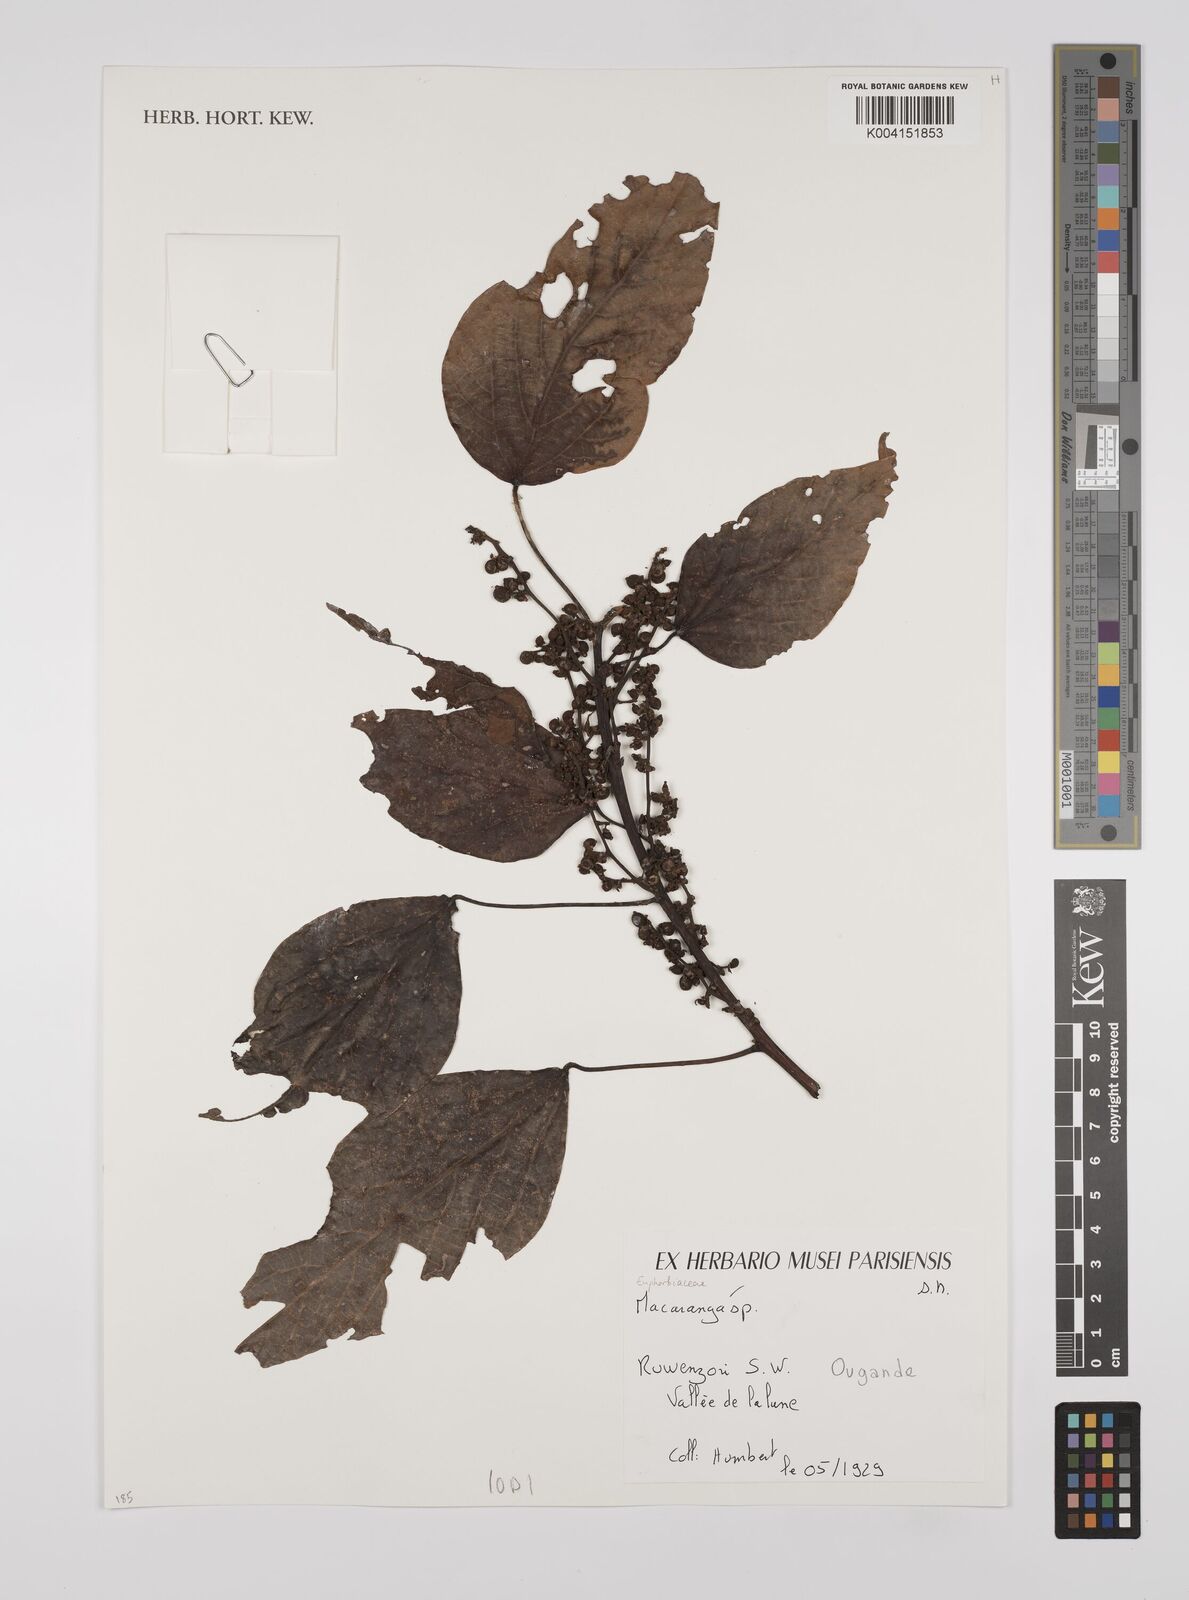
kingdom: Plantae
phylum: Tracheophyta
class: Magnoliopsida
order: Malpighiales
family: Euphorbiaceae
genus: Macaranga
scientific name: Macaranga
